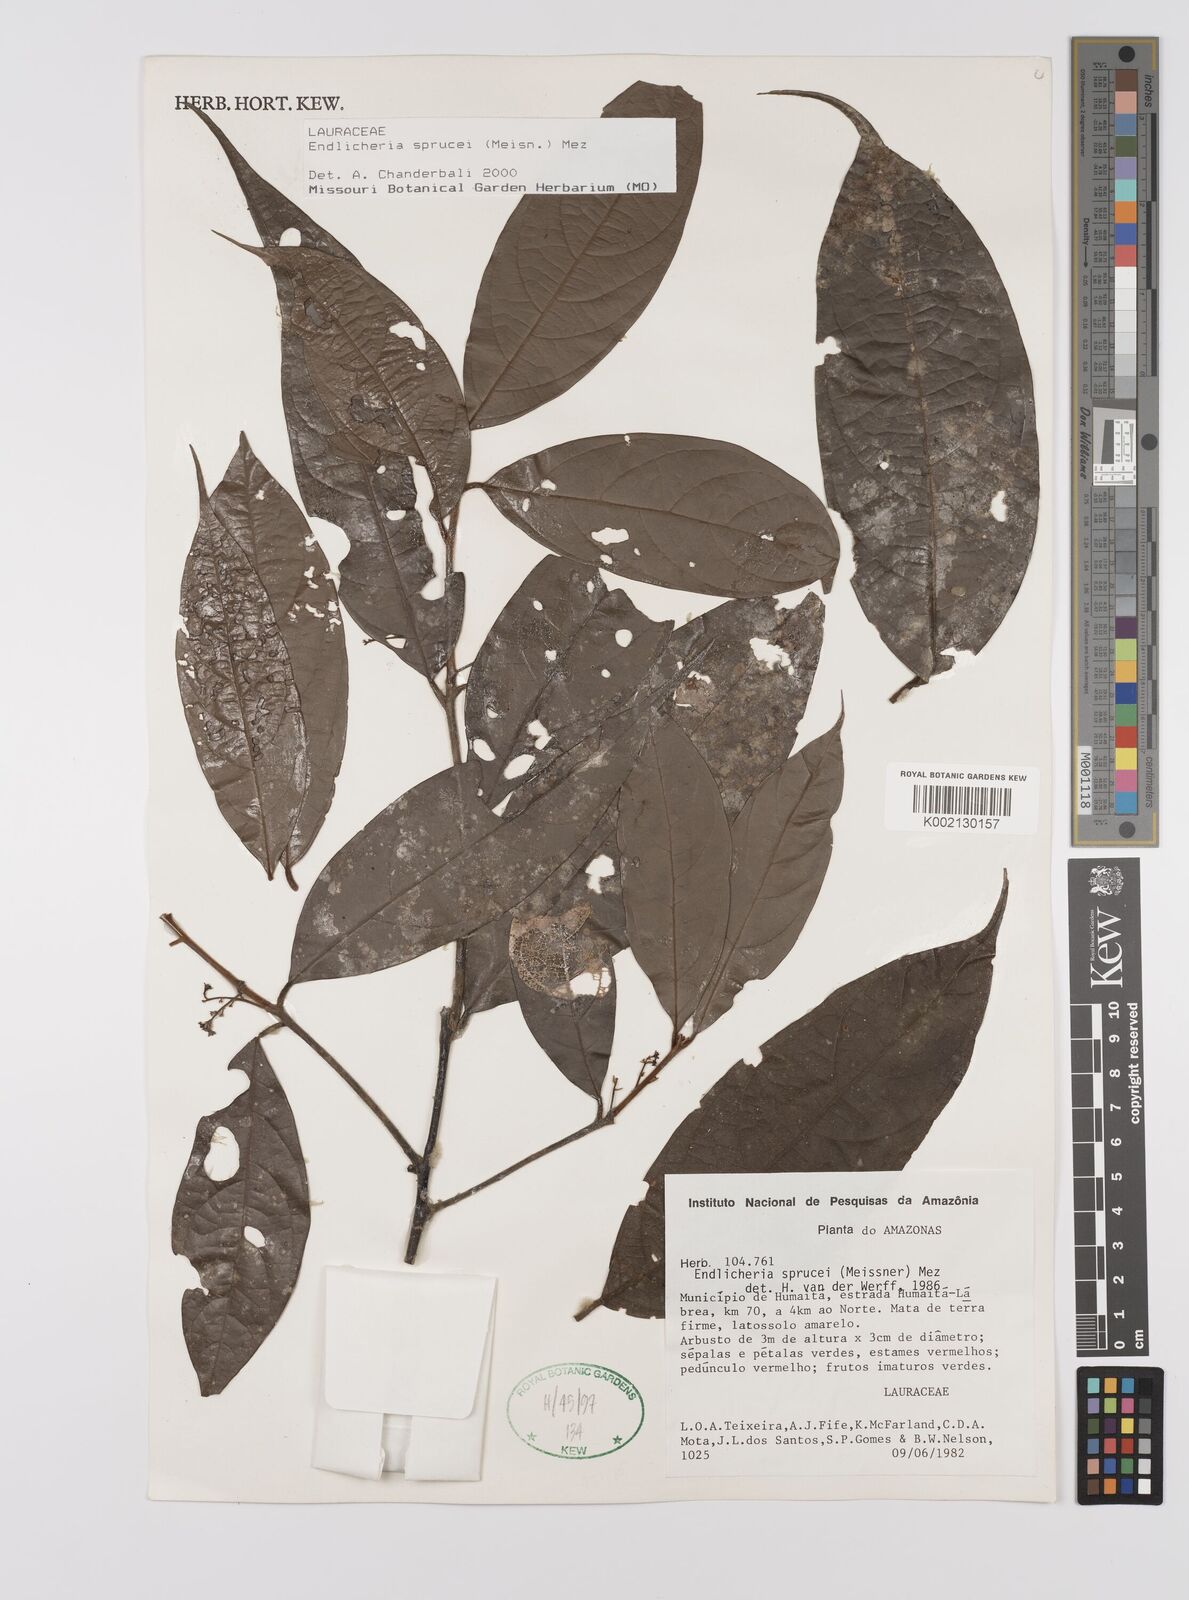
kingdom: Plantae
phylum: Tracheophyta
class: Magnoliopsida
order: Laurales
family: Lauraceae
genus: Endlicheria
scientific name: Endlicheria sprucei
